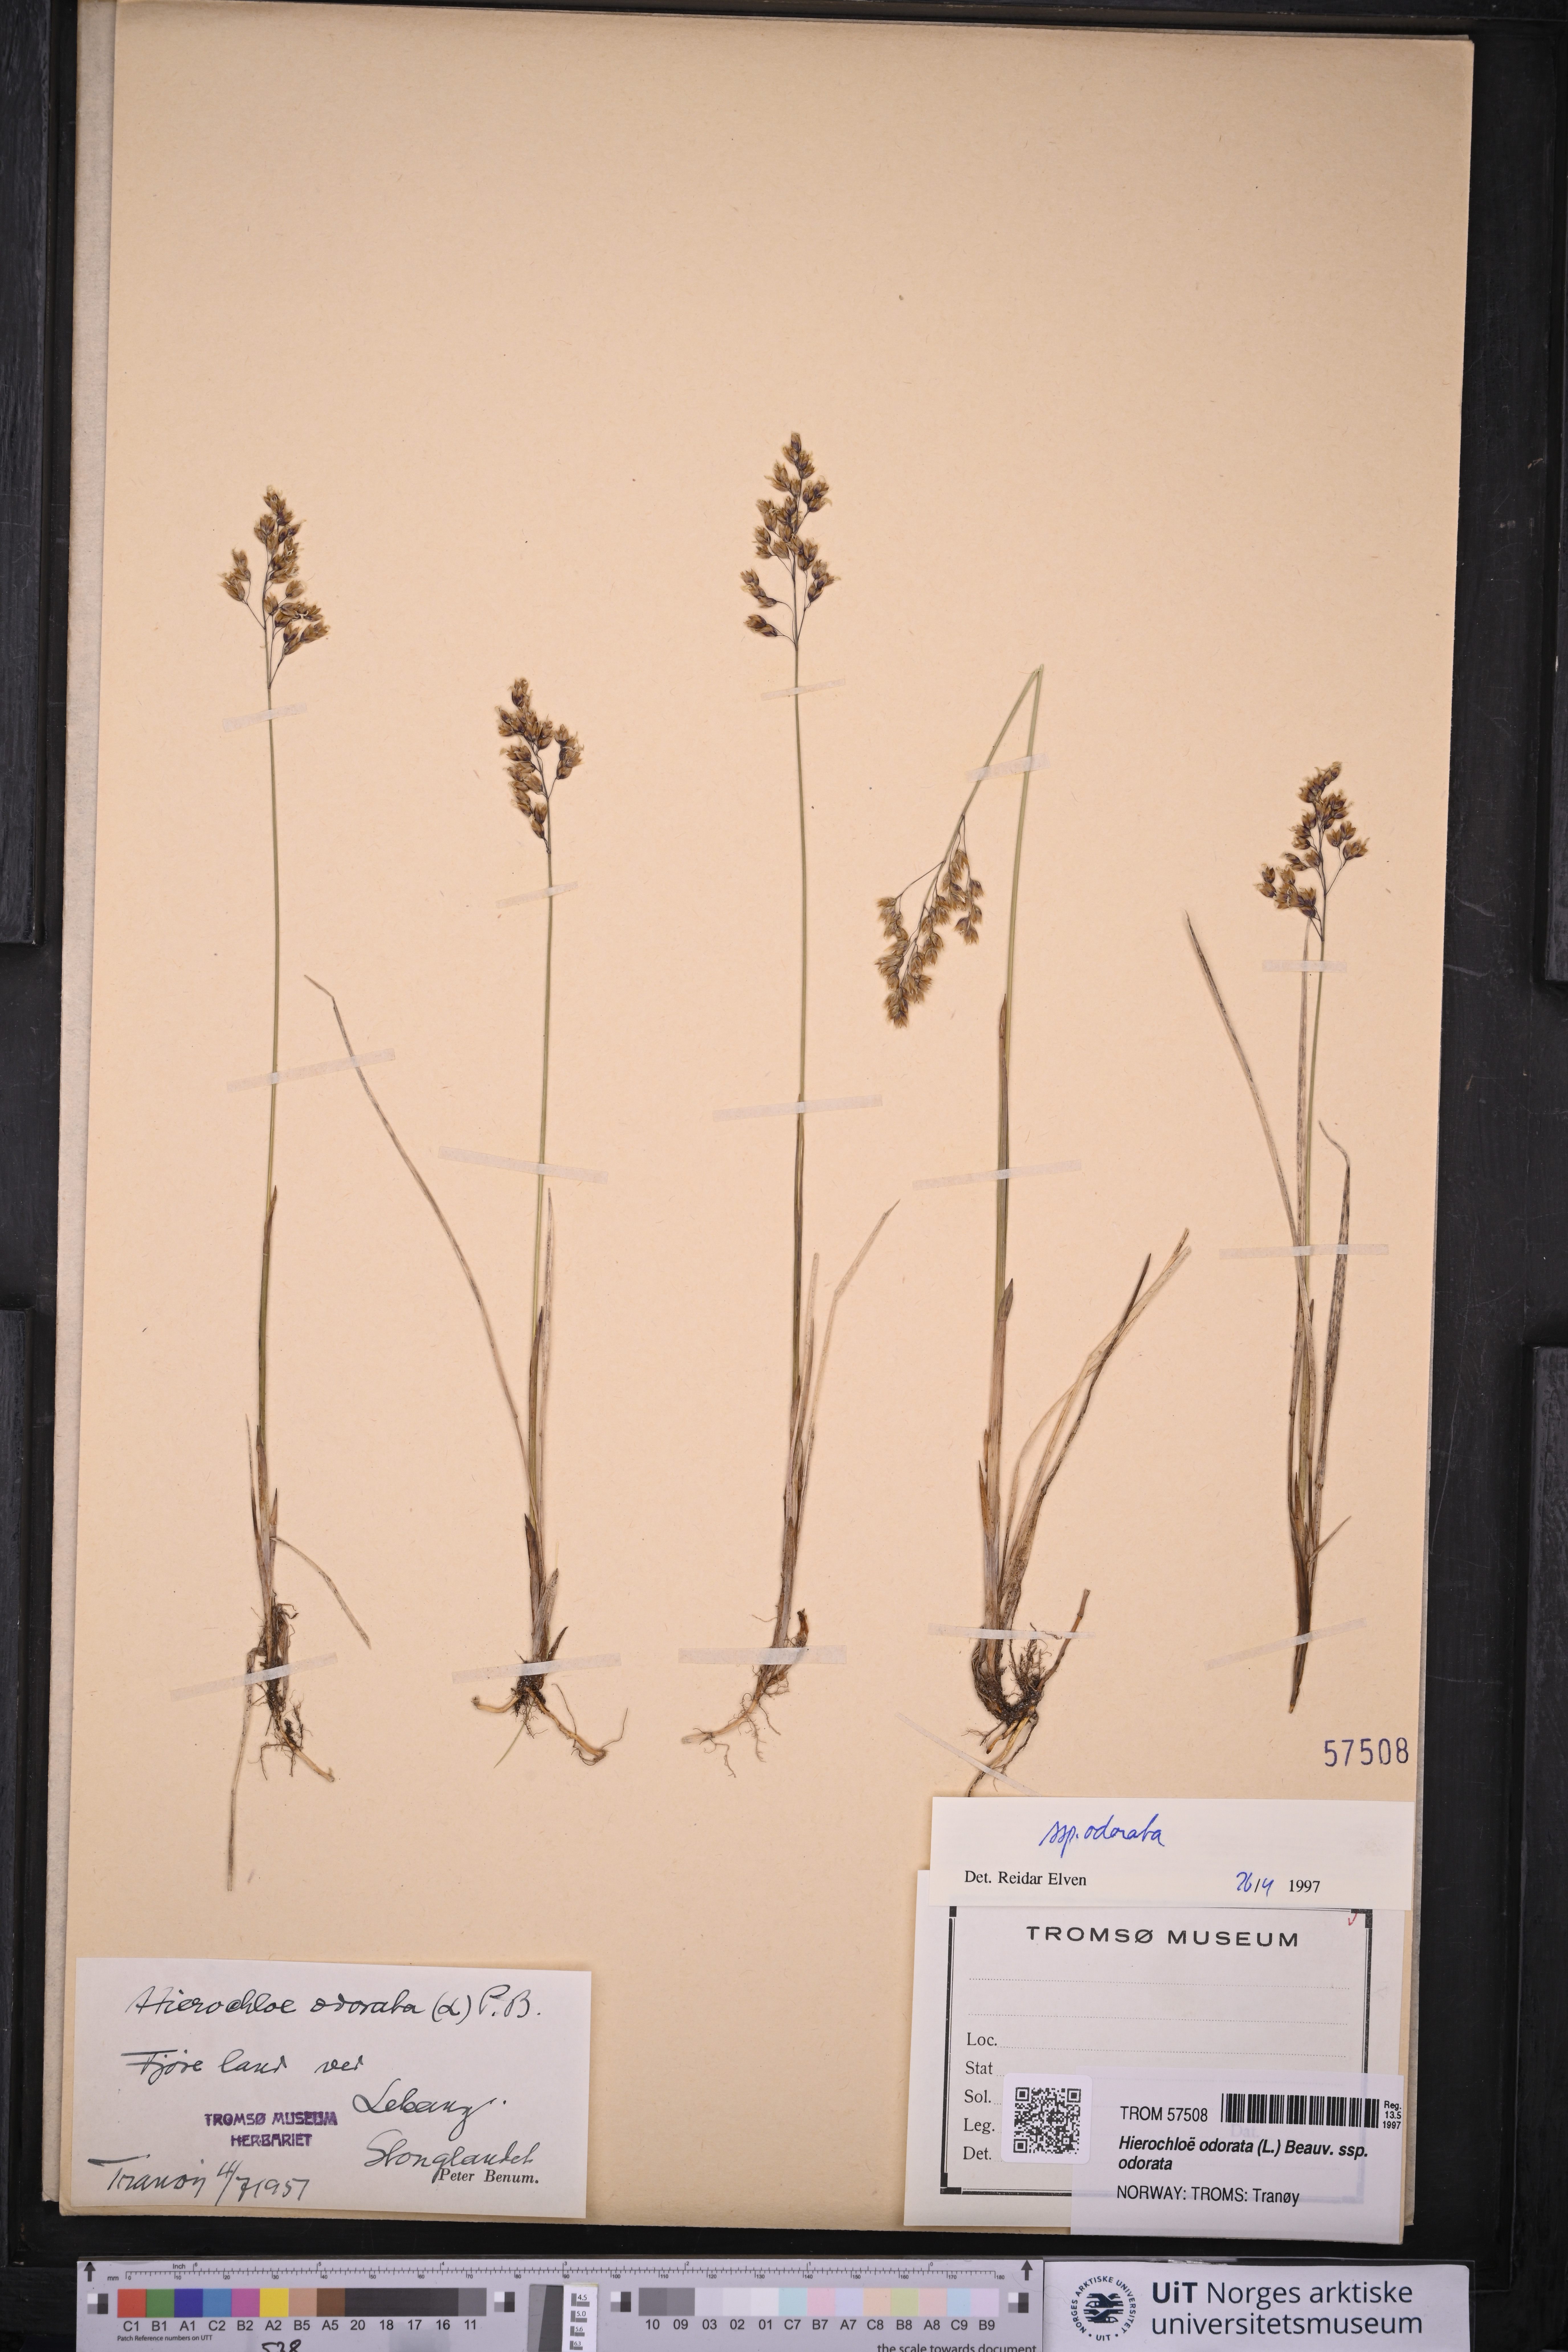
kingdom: Plantae
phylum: Tracheophyta
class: Liliopsida
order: Poales
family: Poaceae
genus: Anthoxanthum
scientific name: Anthoxanthum nitens
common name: Holy grass
